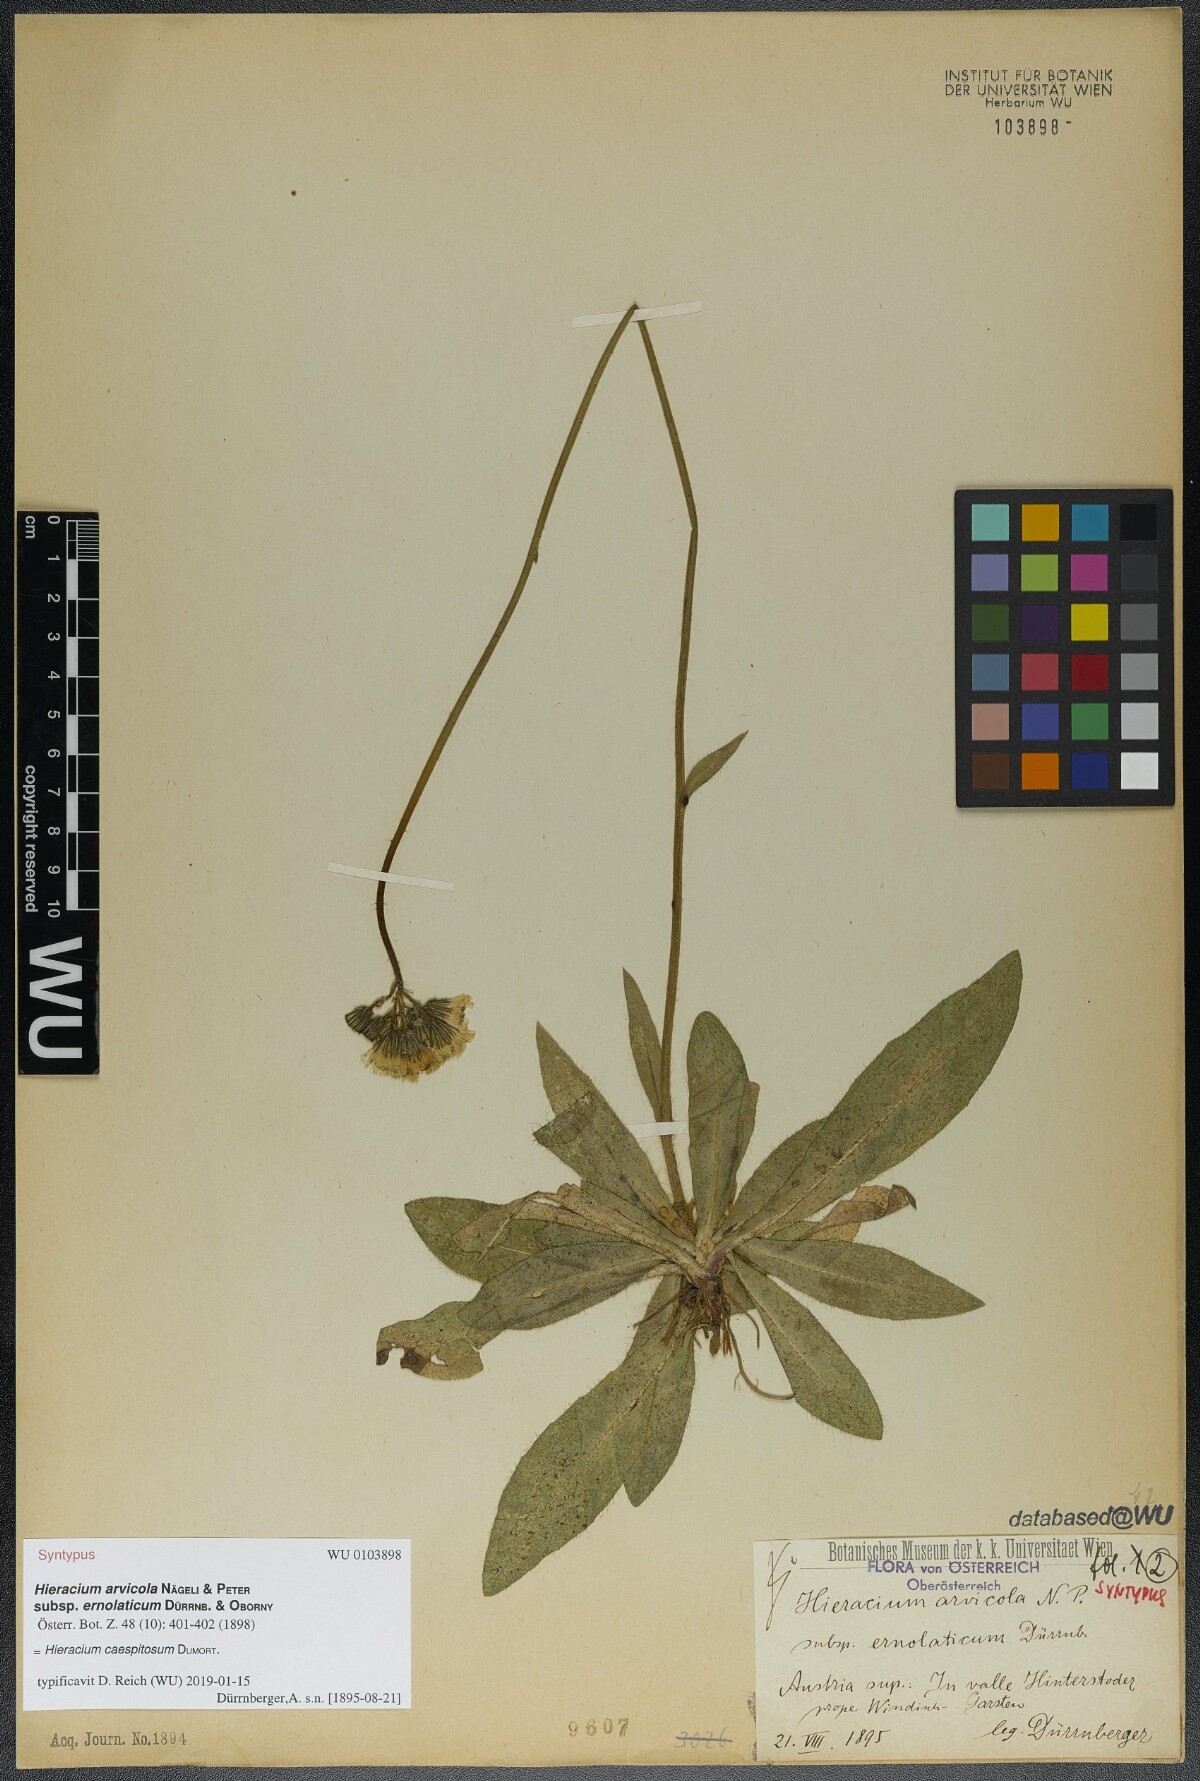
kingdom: Plantae
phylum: Tracheophyta
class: Magnoliopsida
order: Asterales
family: Asteraceae
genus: Pilosella
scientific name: Pilosella erythrochrista
